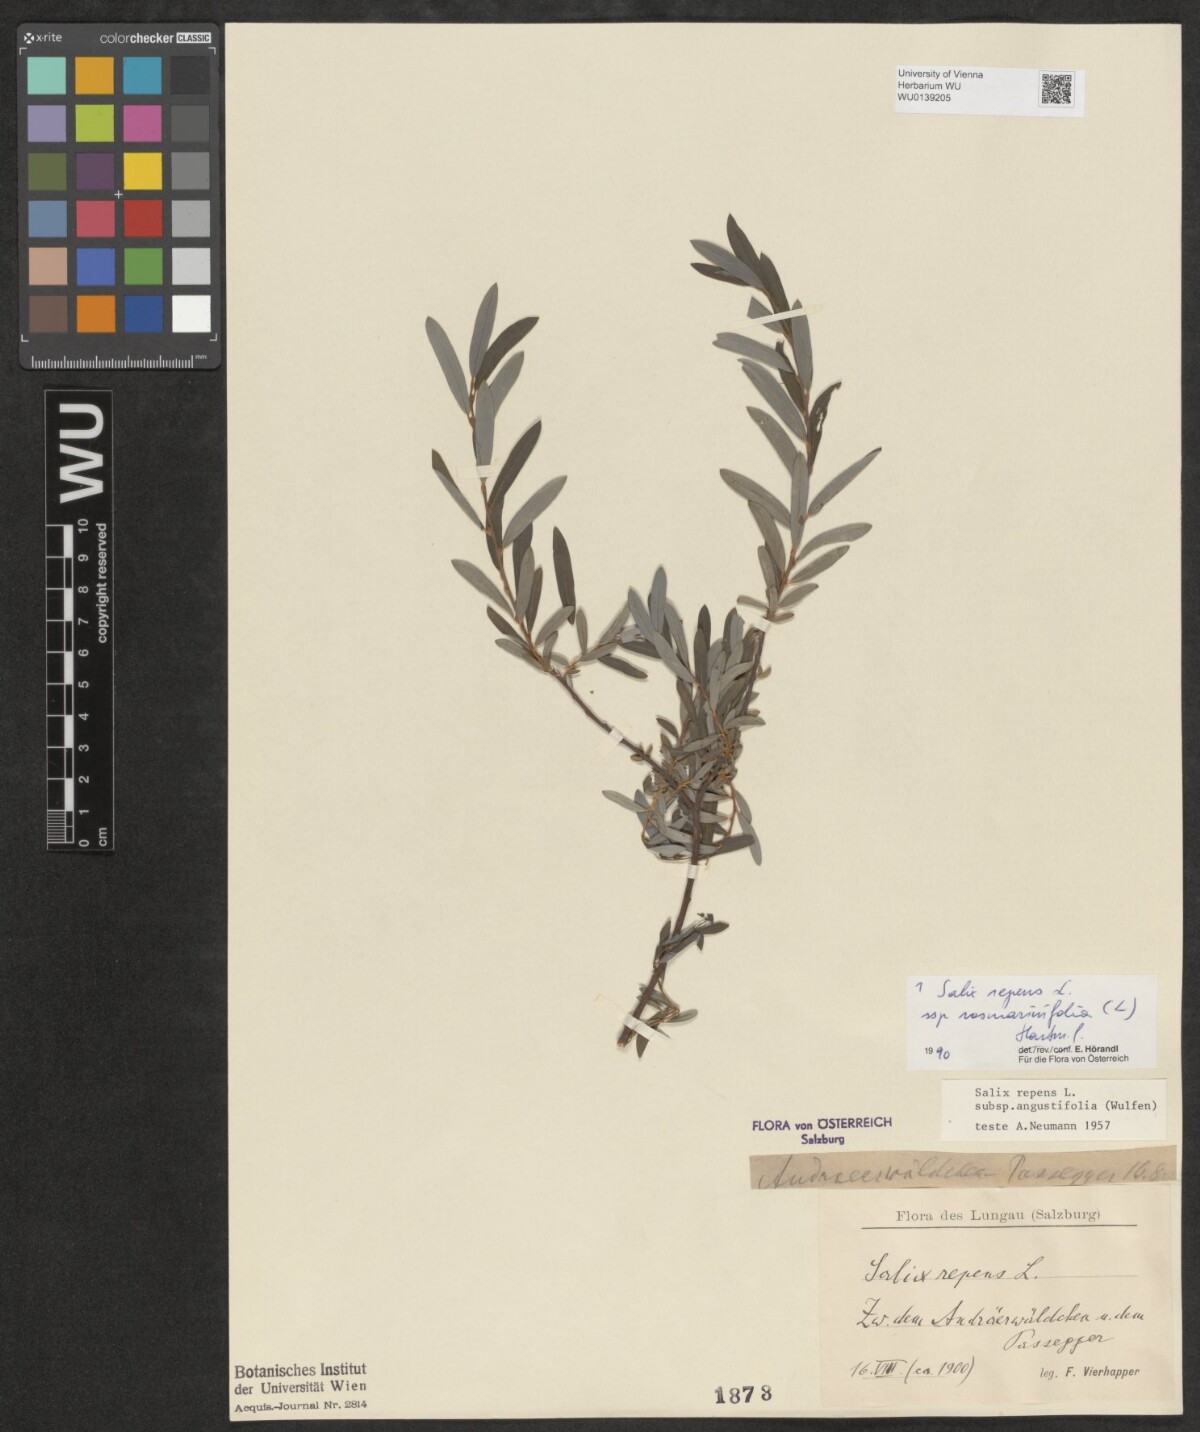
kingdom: Plantae
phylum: Tracheophyta
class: Magnoliopsida
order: Malpighiales
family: Salicaceae
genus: Salix
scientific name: Salix repens
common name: Creeping willow
